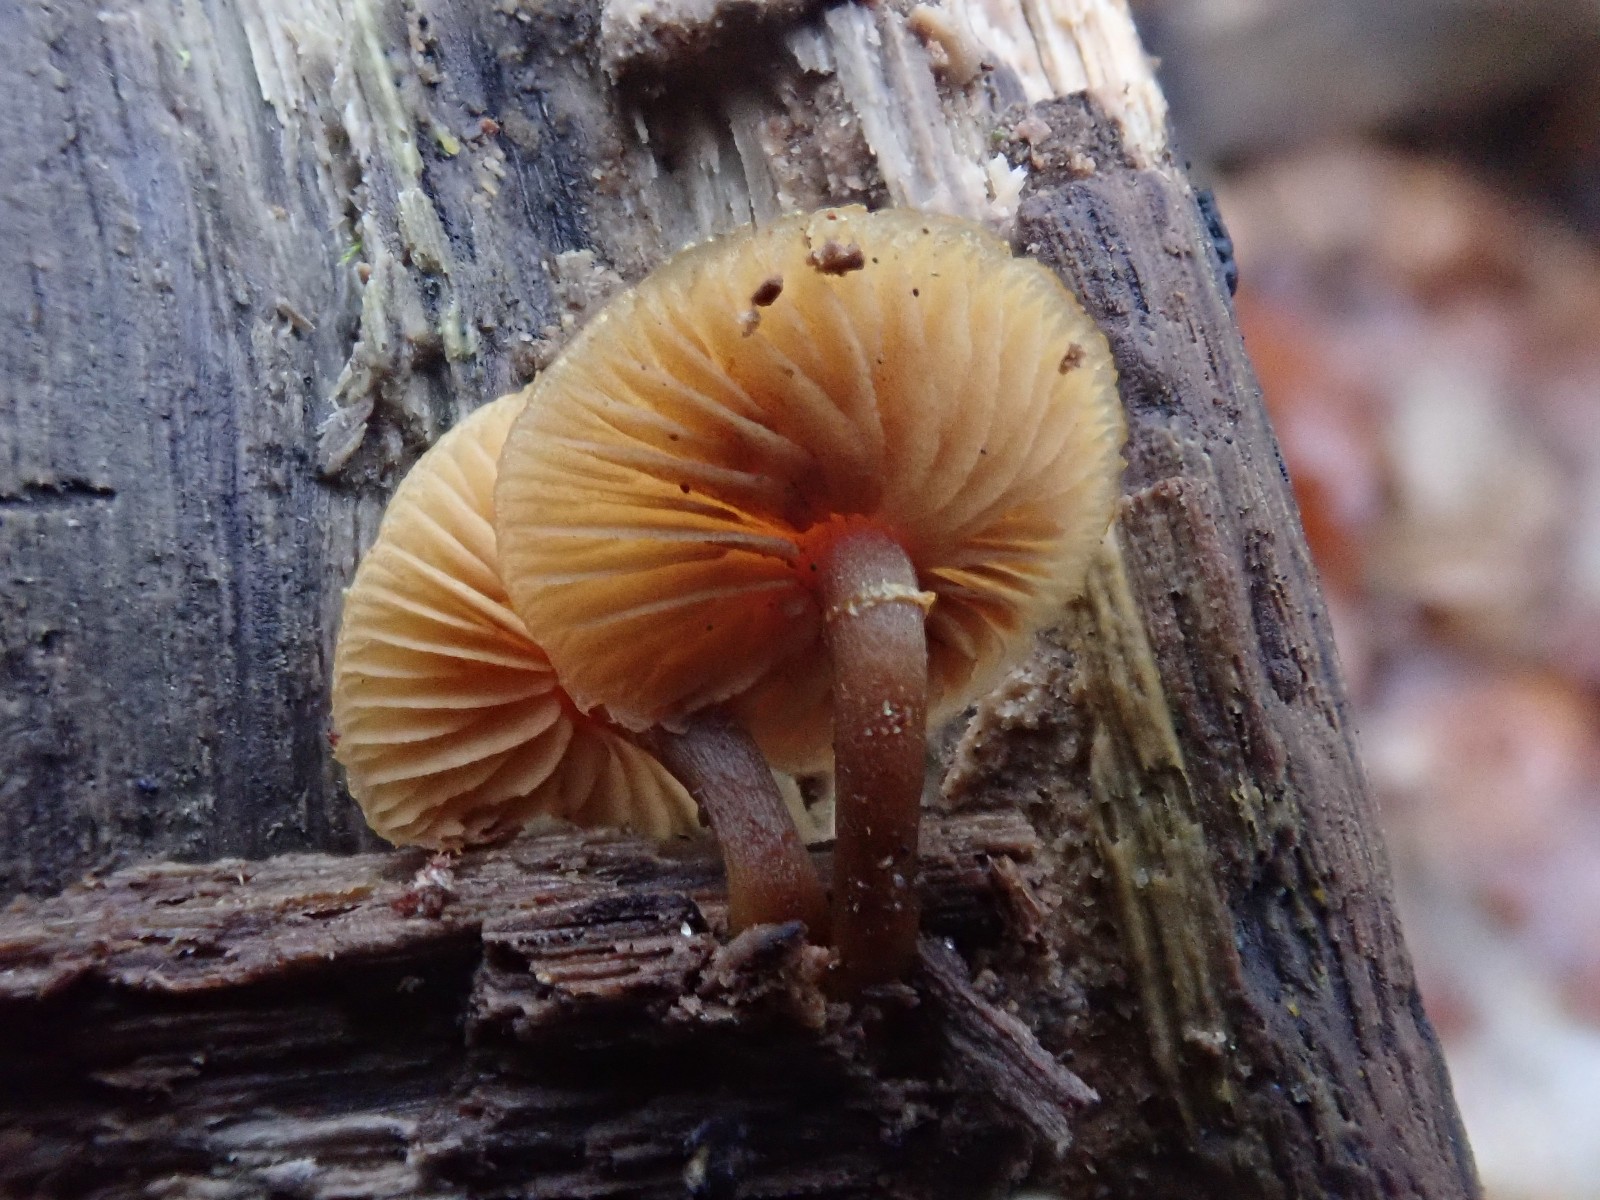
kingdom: Fungi
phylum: Basidiomycota
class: Agaricomycetes
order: Agaricales
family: Hymenogastraceae
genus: Galerina
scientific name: Galerina marginata
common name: randbæltet hjelmhat
